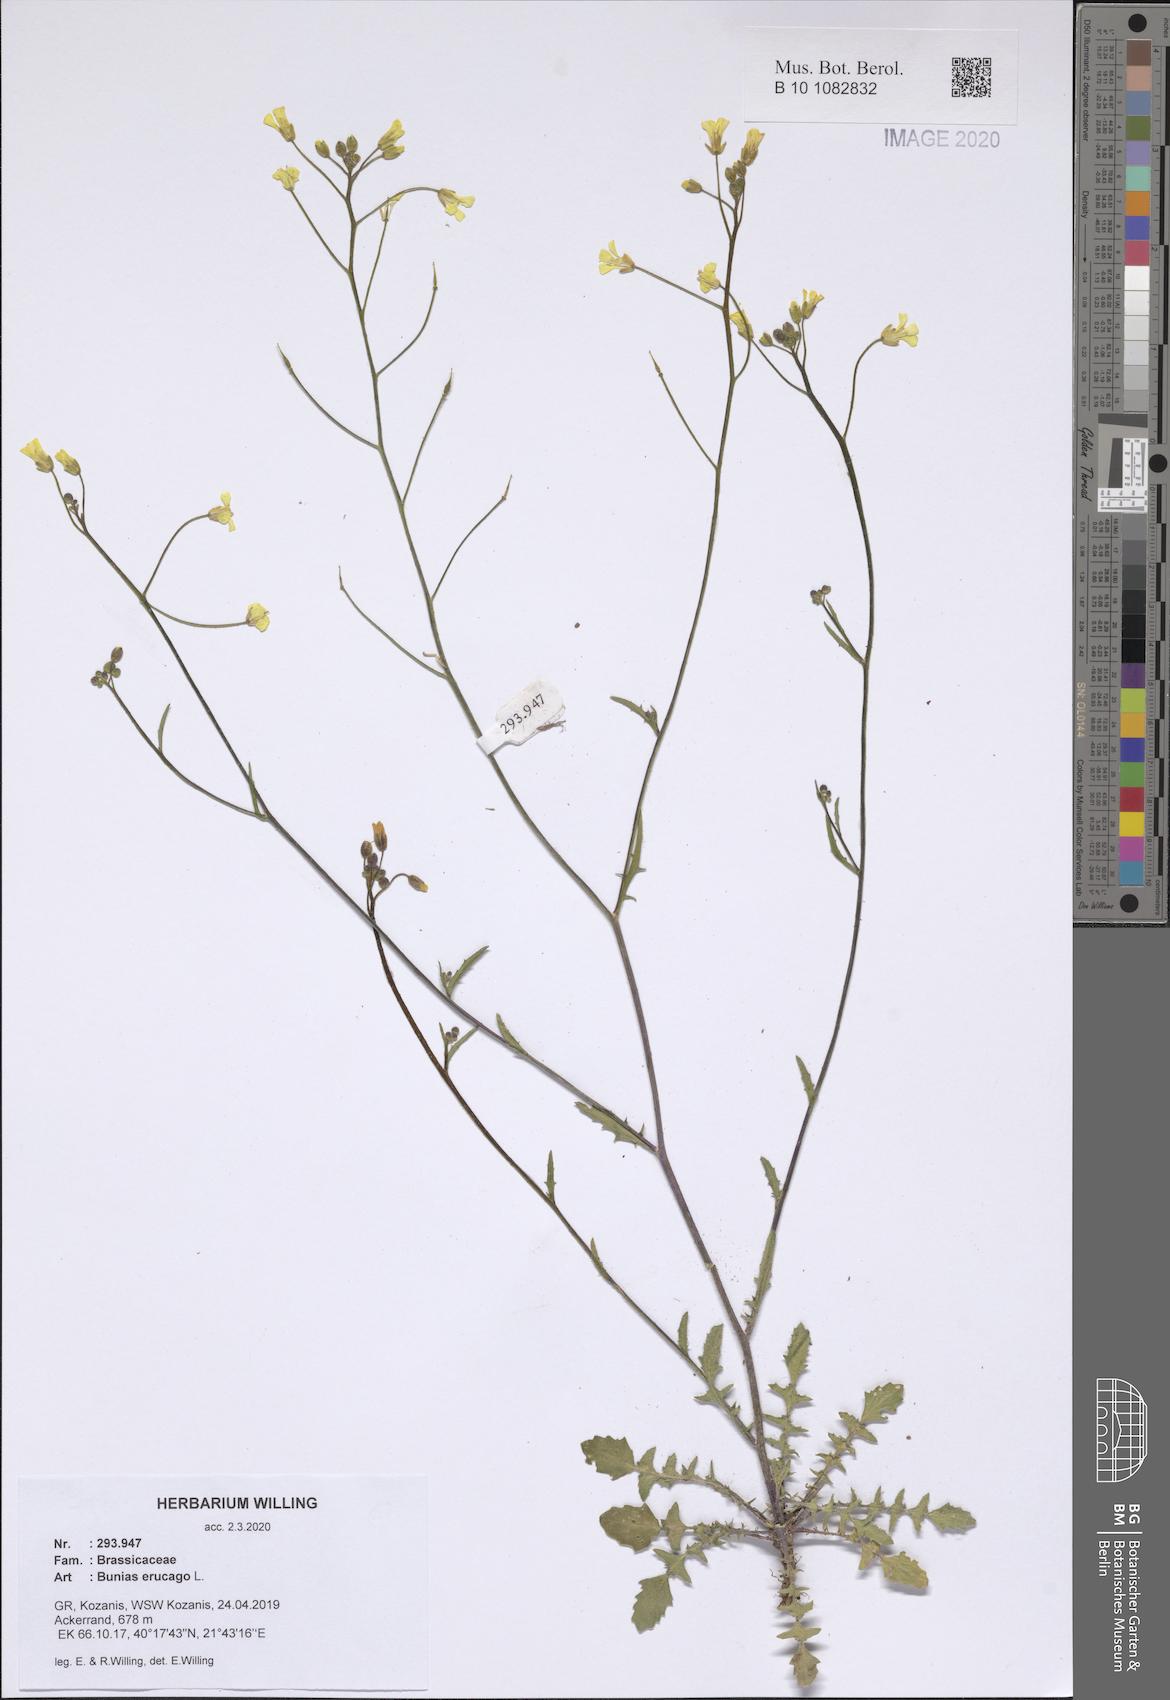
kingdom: Plantae
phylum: Tracheophyta
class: Magnoliopsida
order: Brassicales
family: Brassicaceae
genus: Bunias
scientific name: Bunias erucago
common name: Southern warty-cabbage
